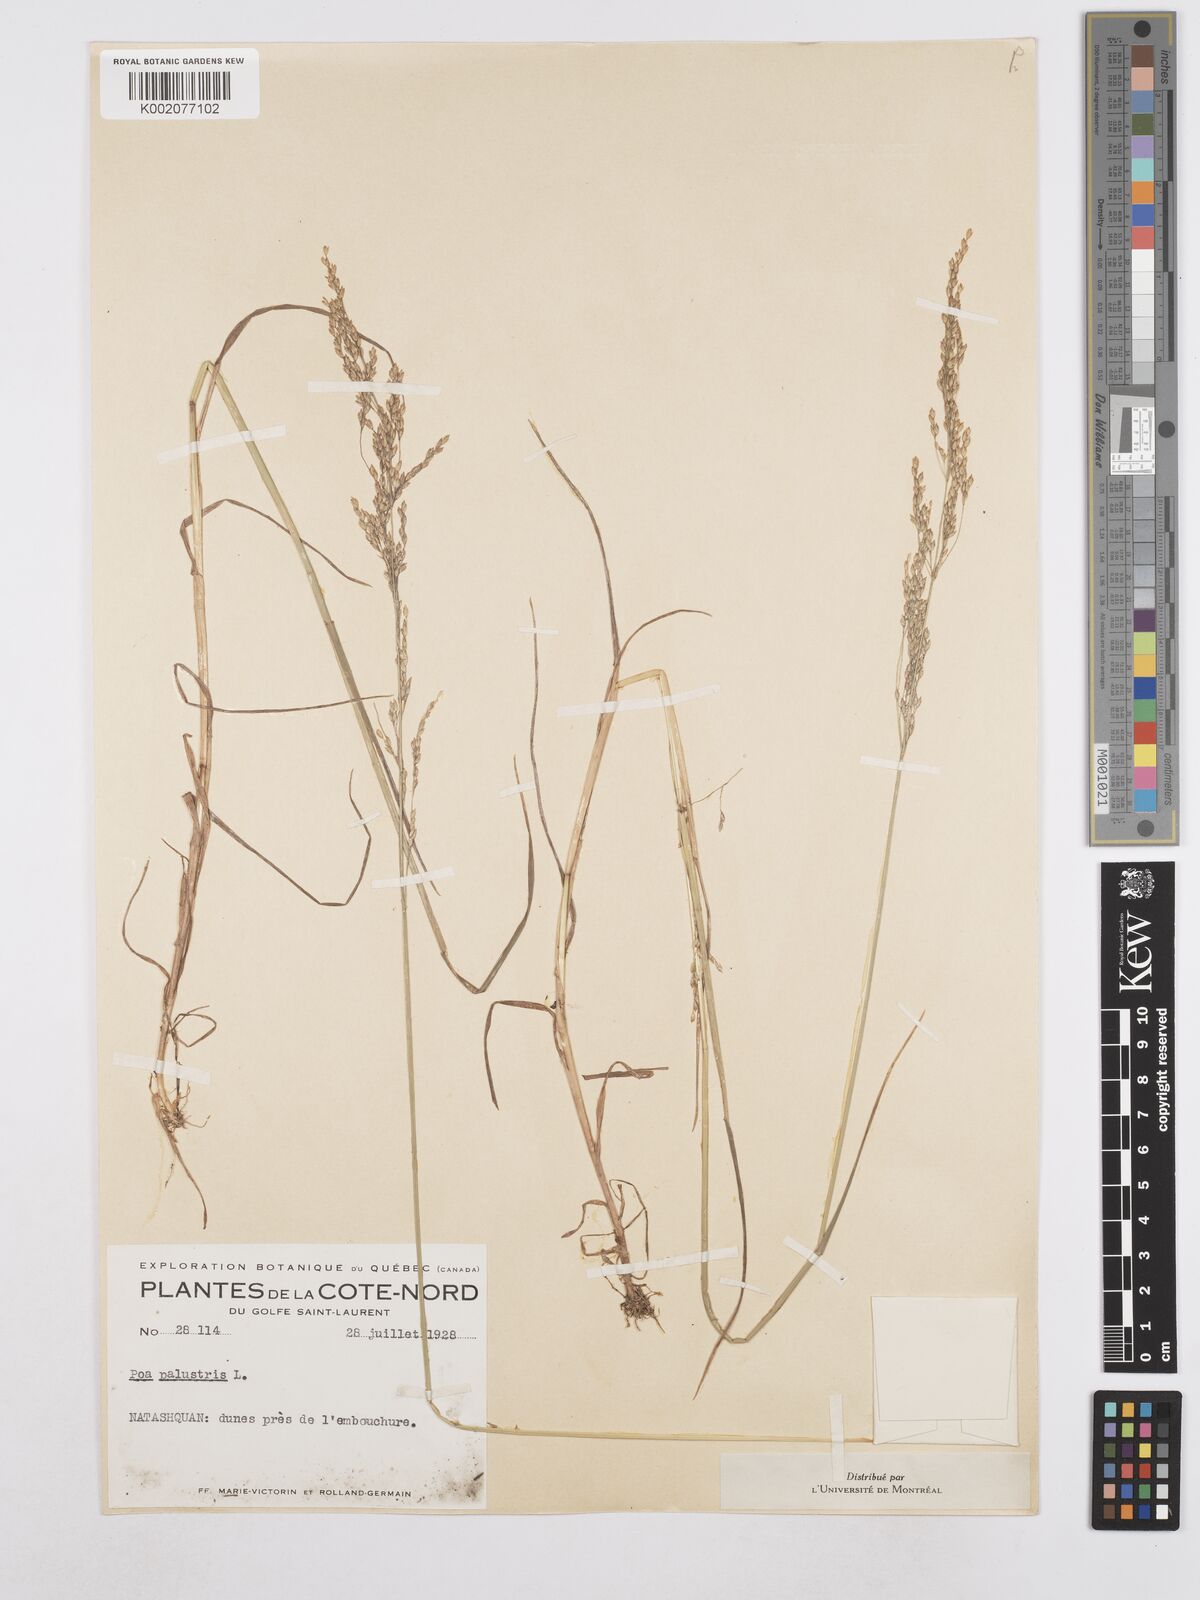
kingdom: Plantae
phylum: Tracheophyta
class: Liliopsida
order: Poales
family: Poaceae
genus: Poa
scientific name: Poa palustris
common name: Swamp meadow-grass
